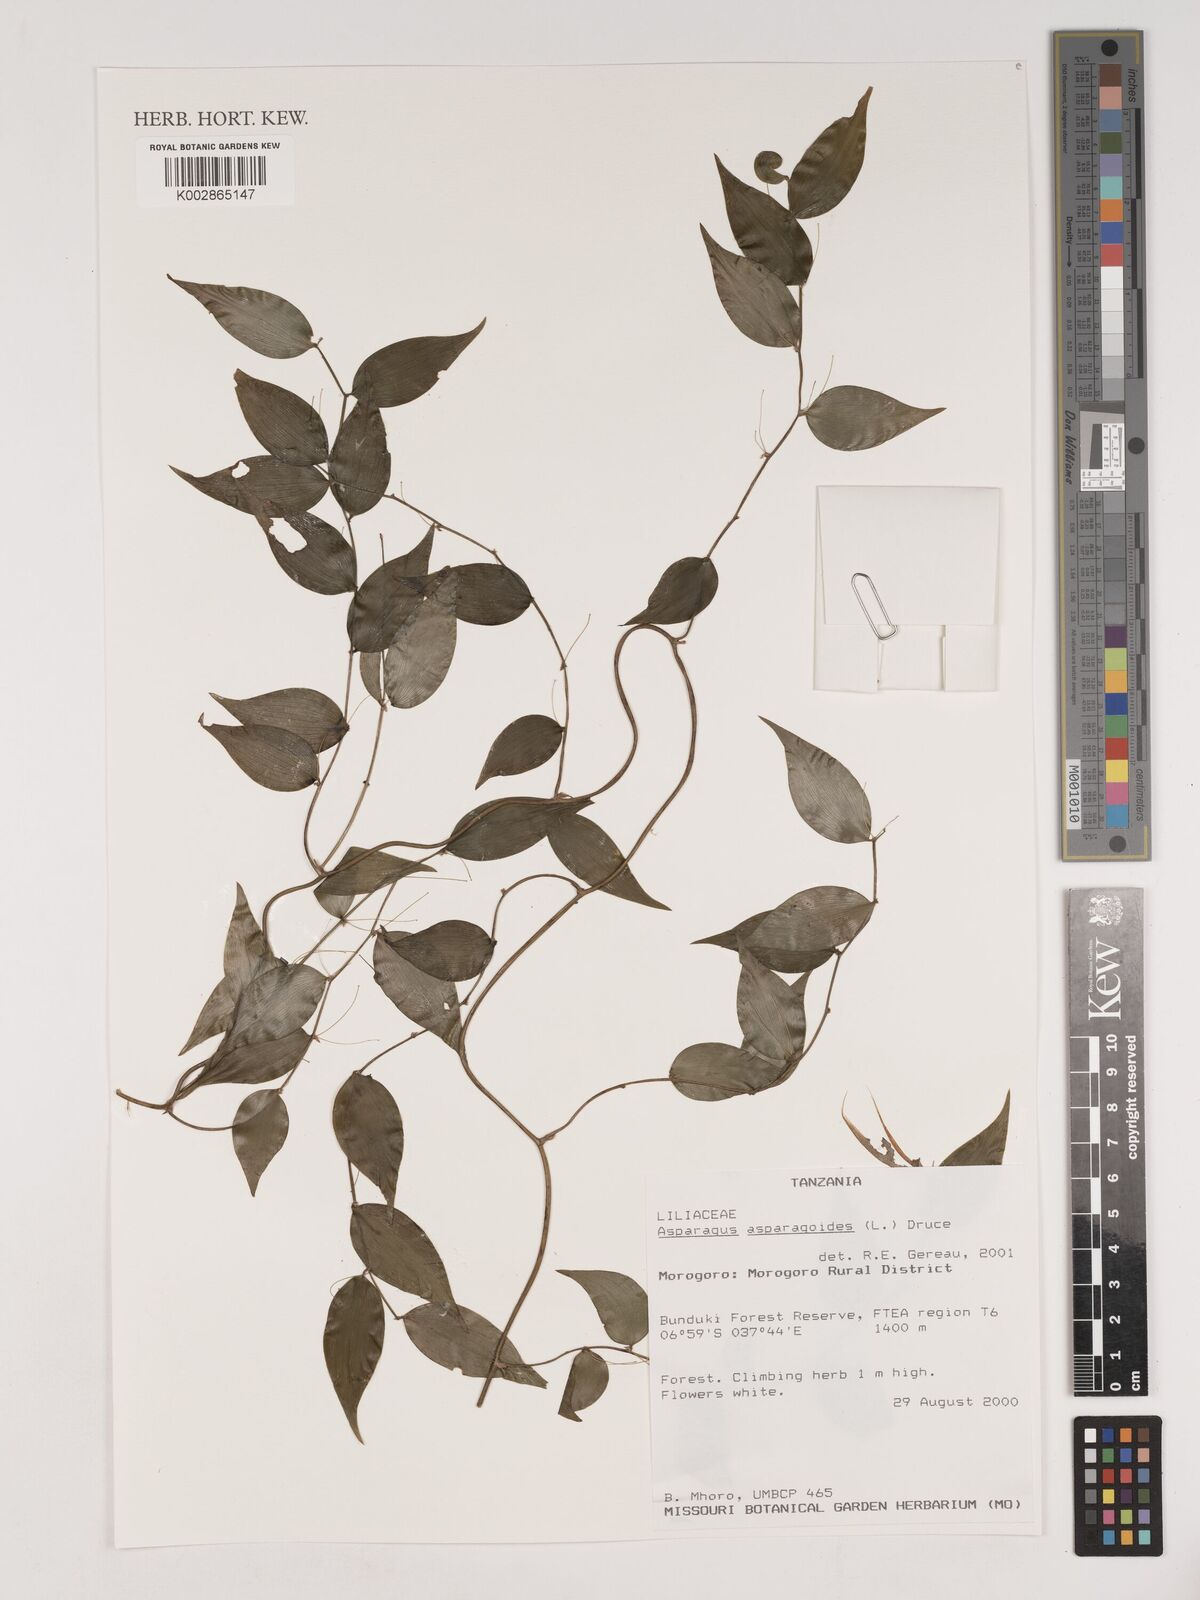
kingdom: Plantae
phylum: Tracheophyta
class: Liliopsida
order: Asparagales
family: Asparagaceae
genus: Asparagus
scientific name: Asparagus asparagoides
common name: African asparagus fern
